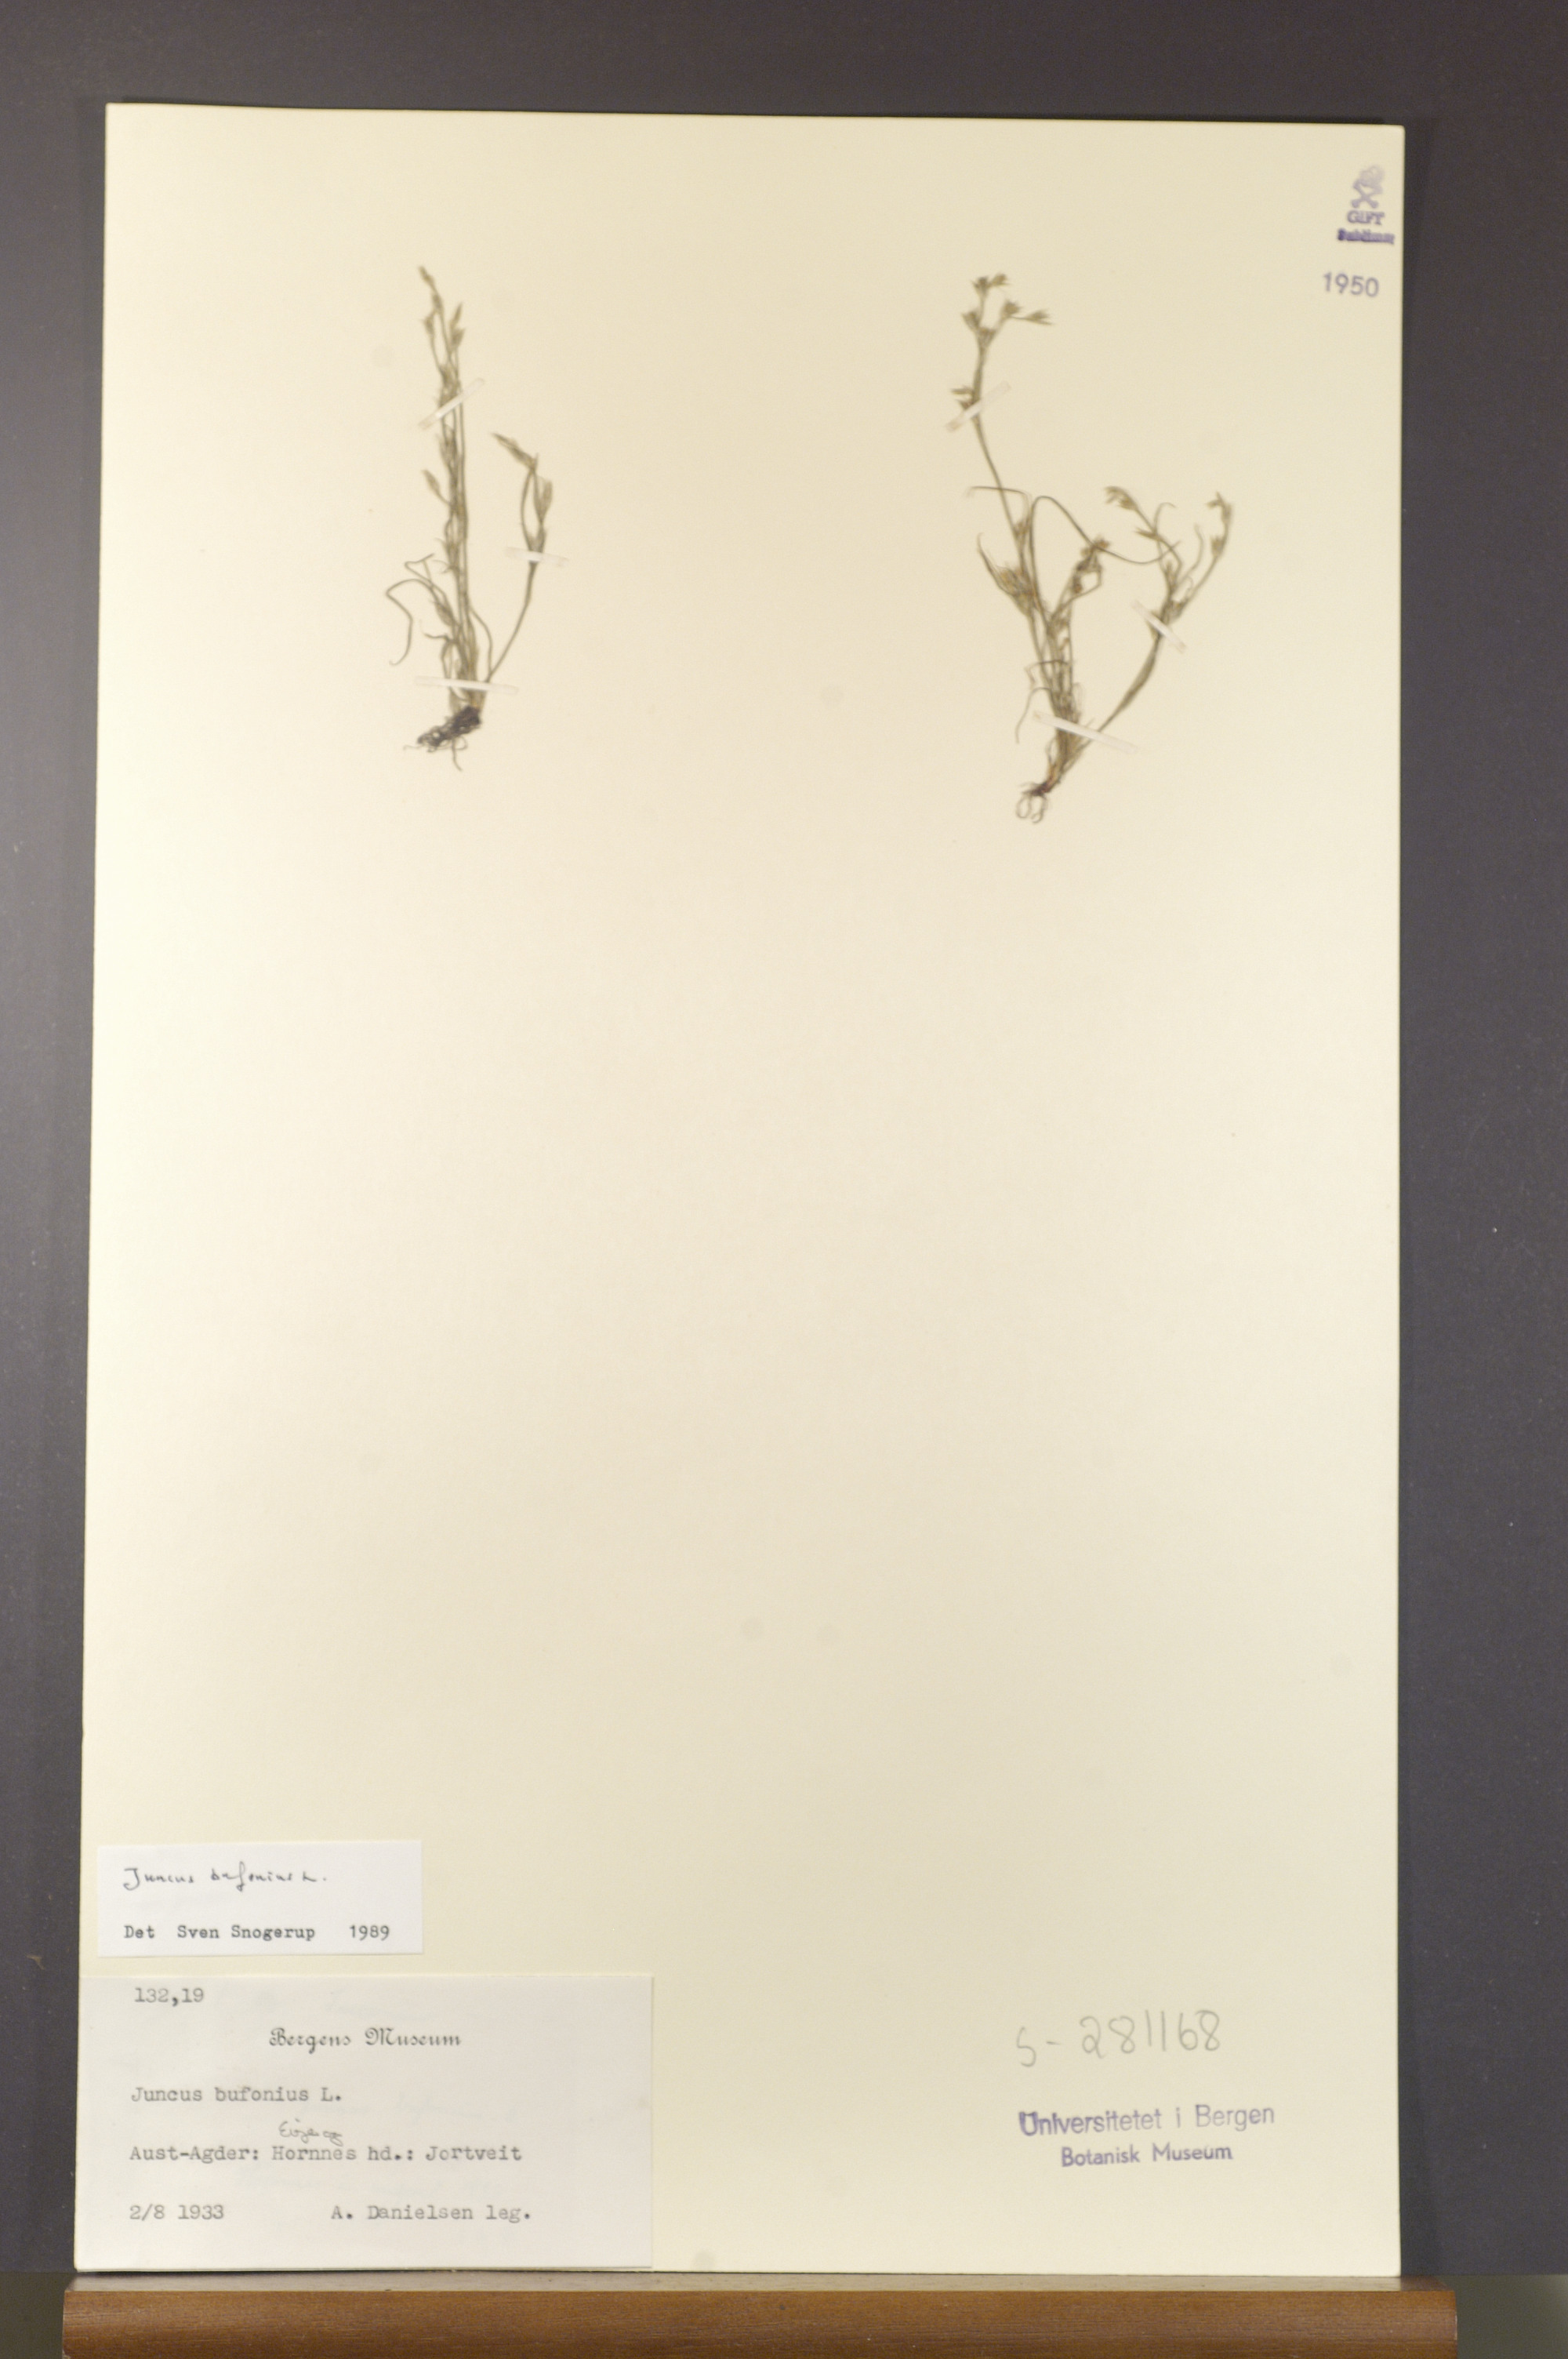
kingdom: Plantae
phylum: Tracheophyta
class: Liliopsida
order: Poales
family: Juncaceae
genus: Juncus
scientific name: Juncus bufonius
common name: Toad rush
